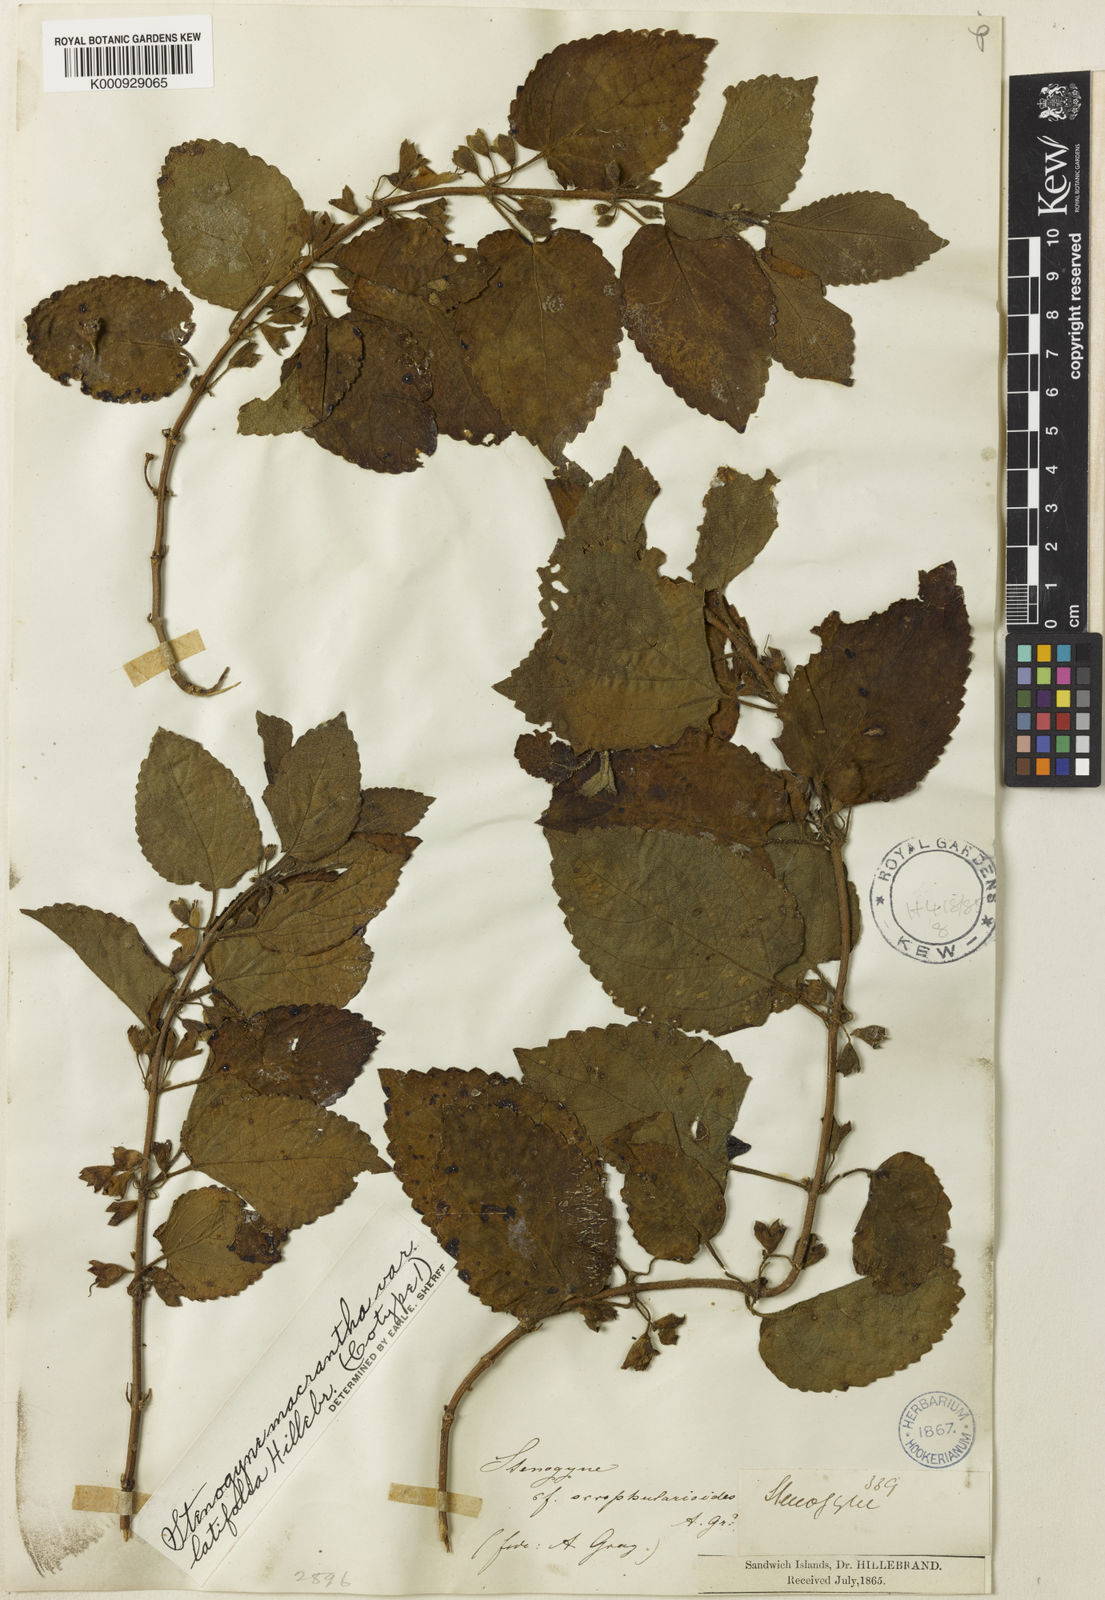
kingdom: Plantae
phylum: Tracheophyta
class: Magnoliopsida
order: Lamiales
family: Lamiaceae
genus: Stenogyne
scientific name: Stenogyne macrantha
